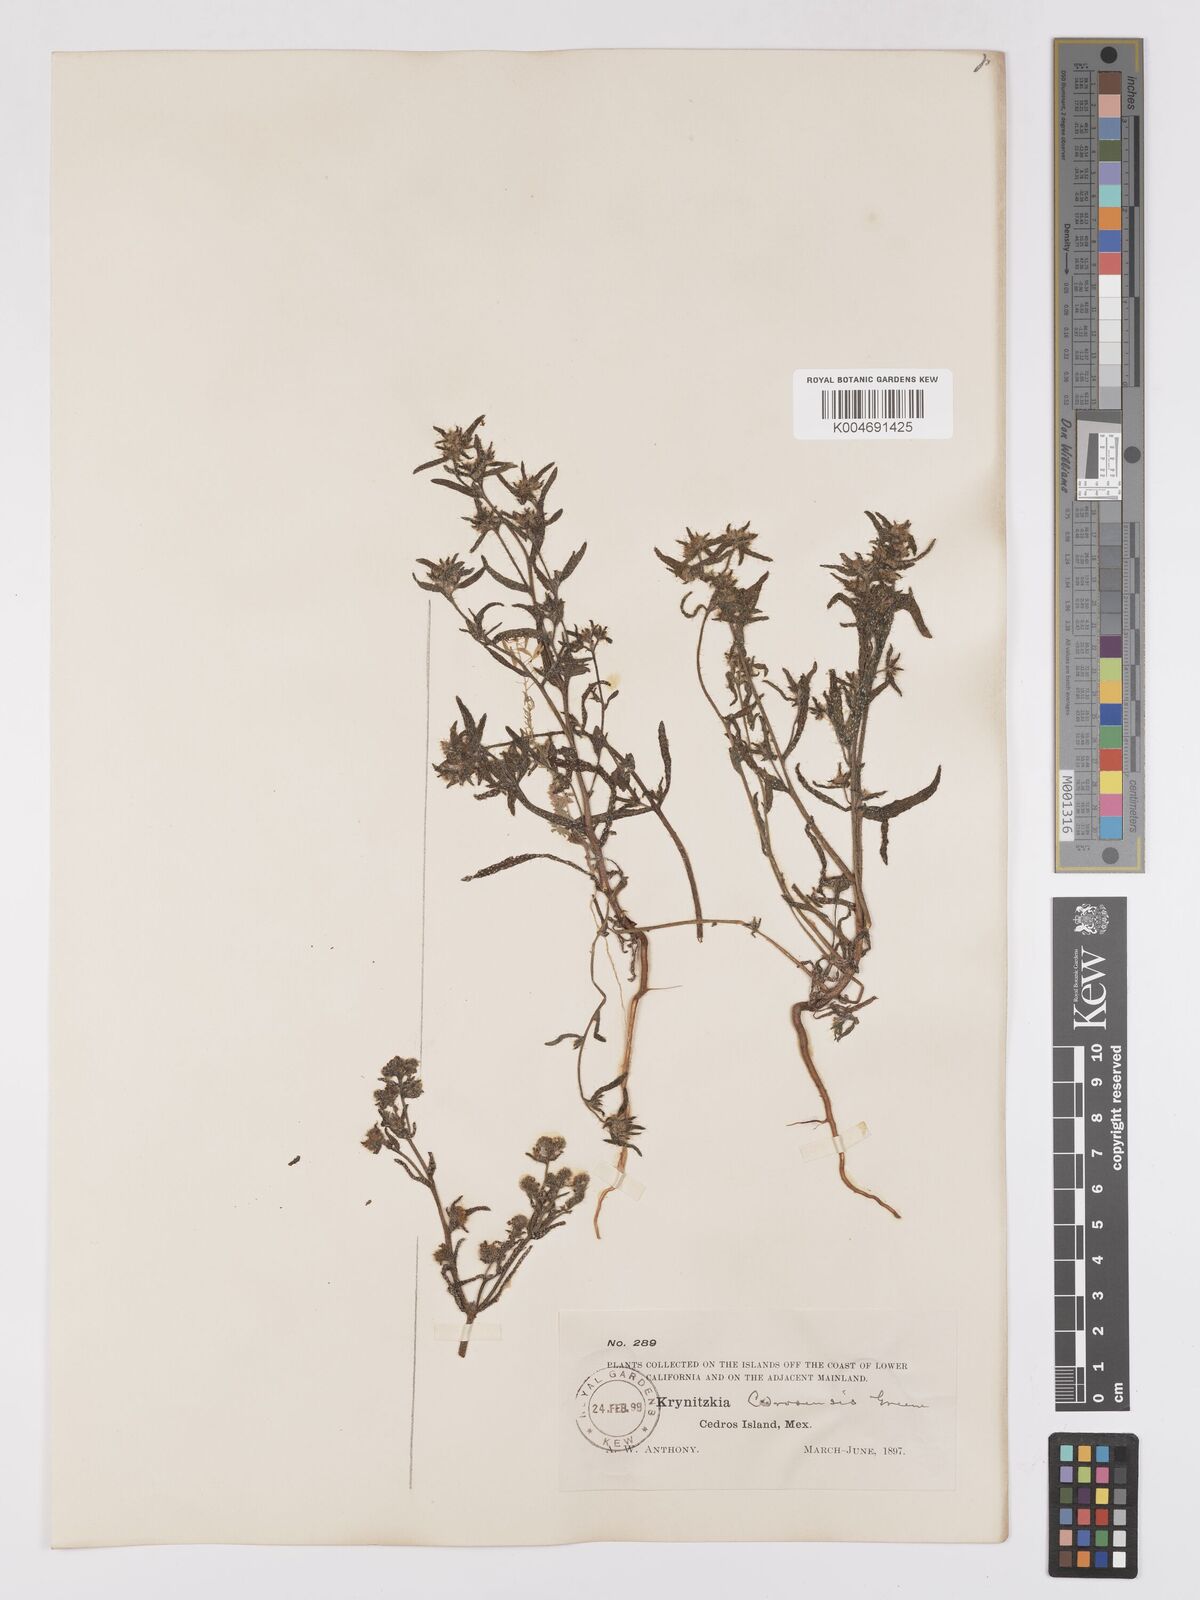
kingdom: Plantae
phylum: Tracheophyta
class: Magnoliopsida
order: Boraginales
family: Boraginaceae
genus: Cryptantha
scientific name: Cryptantha maritima
